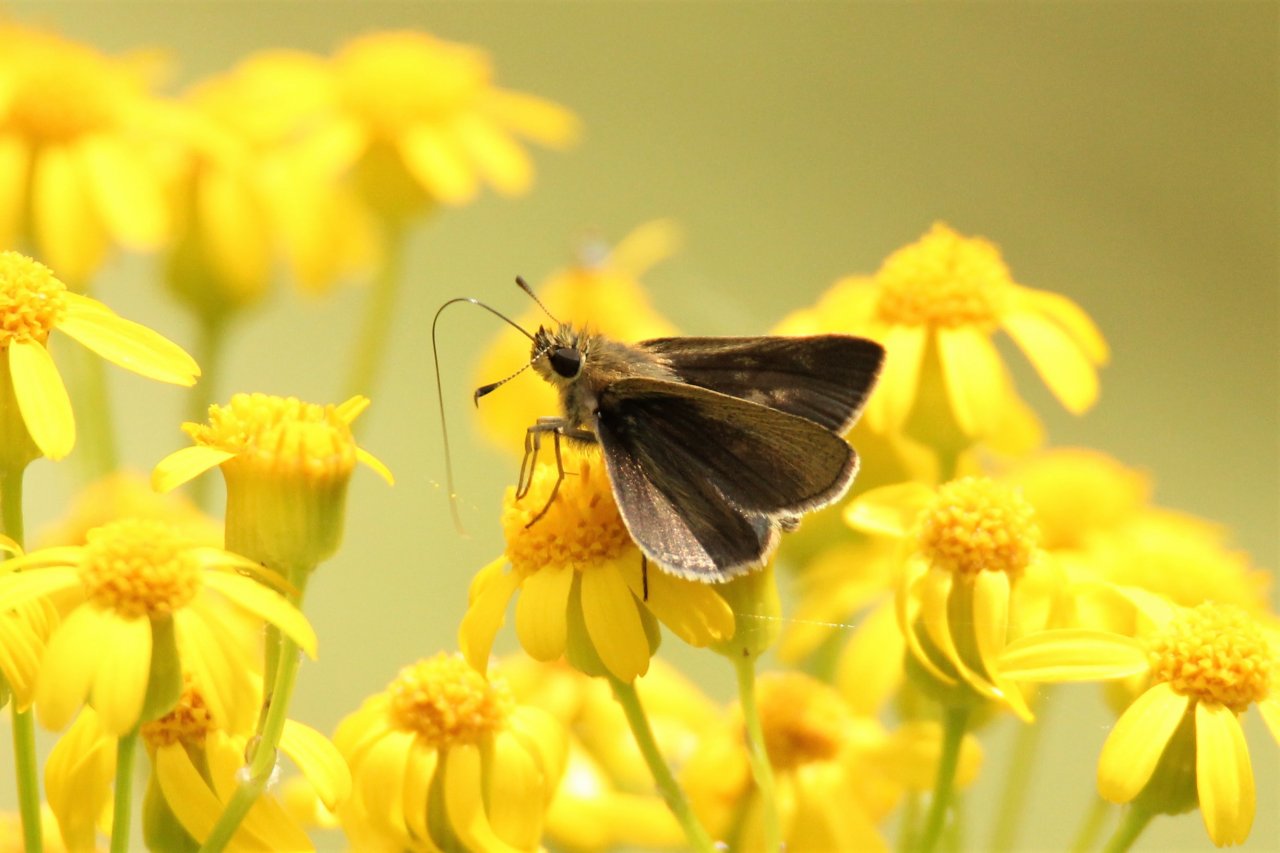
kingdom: Animalia
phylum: Arthropoda
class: Insecta
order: Lepidoptera
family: Hesperiidae
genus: Euphyes
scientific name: Euphyes vestris
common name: Dun Skipper
